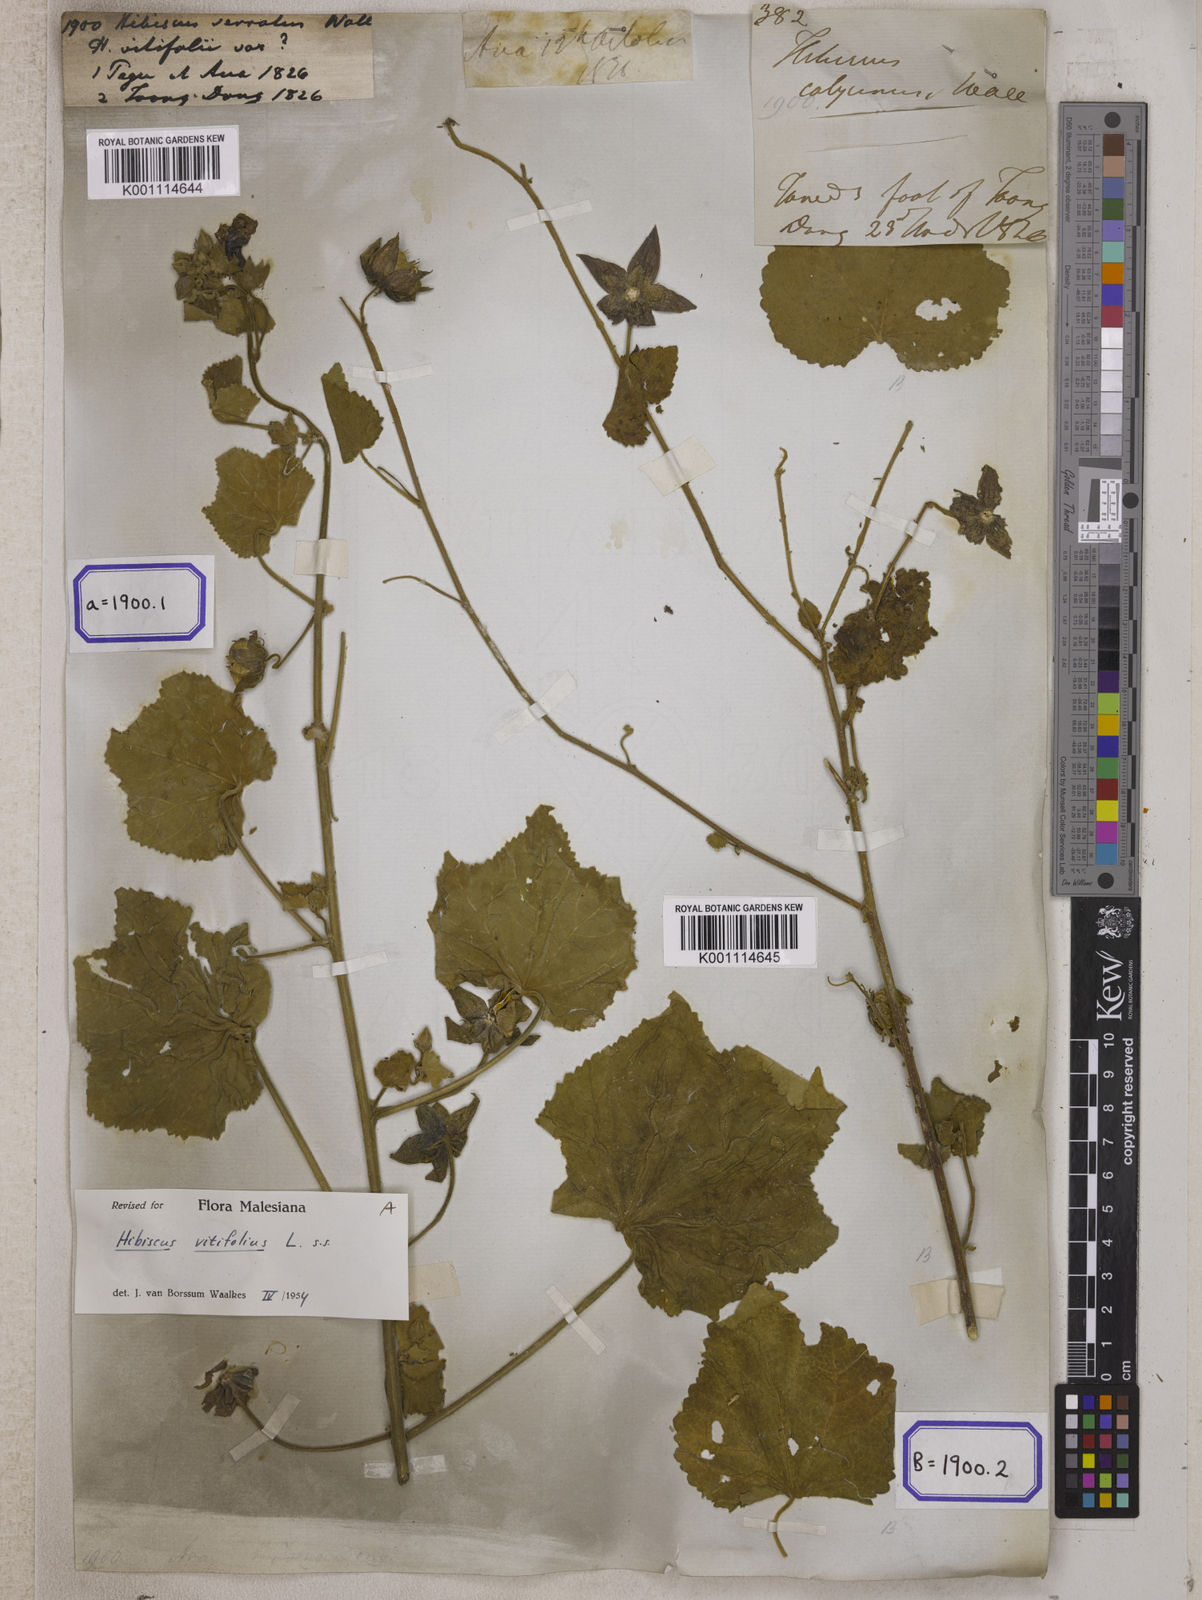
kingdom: Plantae
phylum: Tracheophyta
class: Magnoliopsida
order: Malvales
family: Malvaceae
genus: Hibiscus
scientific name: Hibiscus vitifolius
